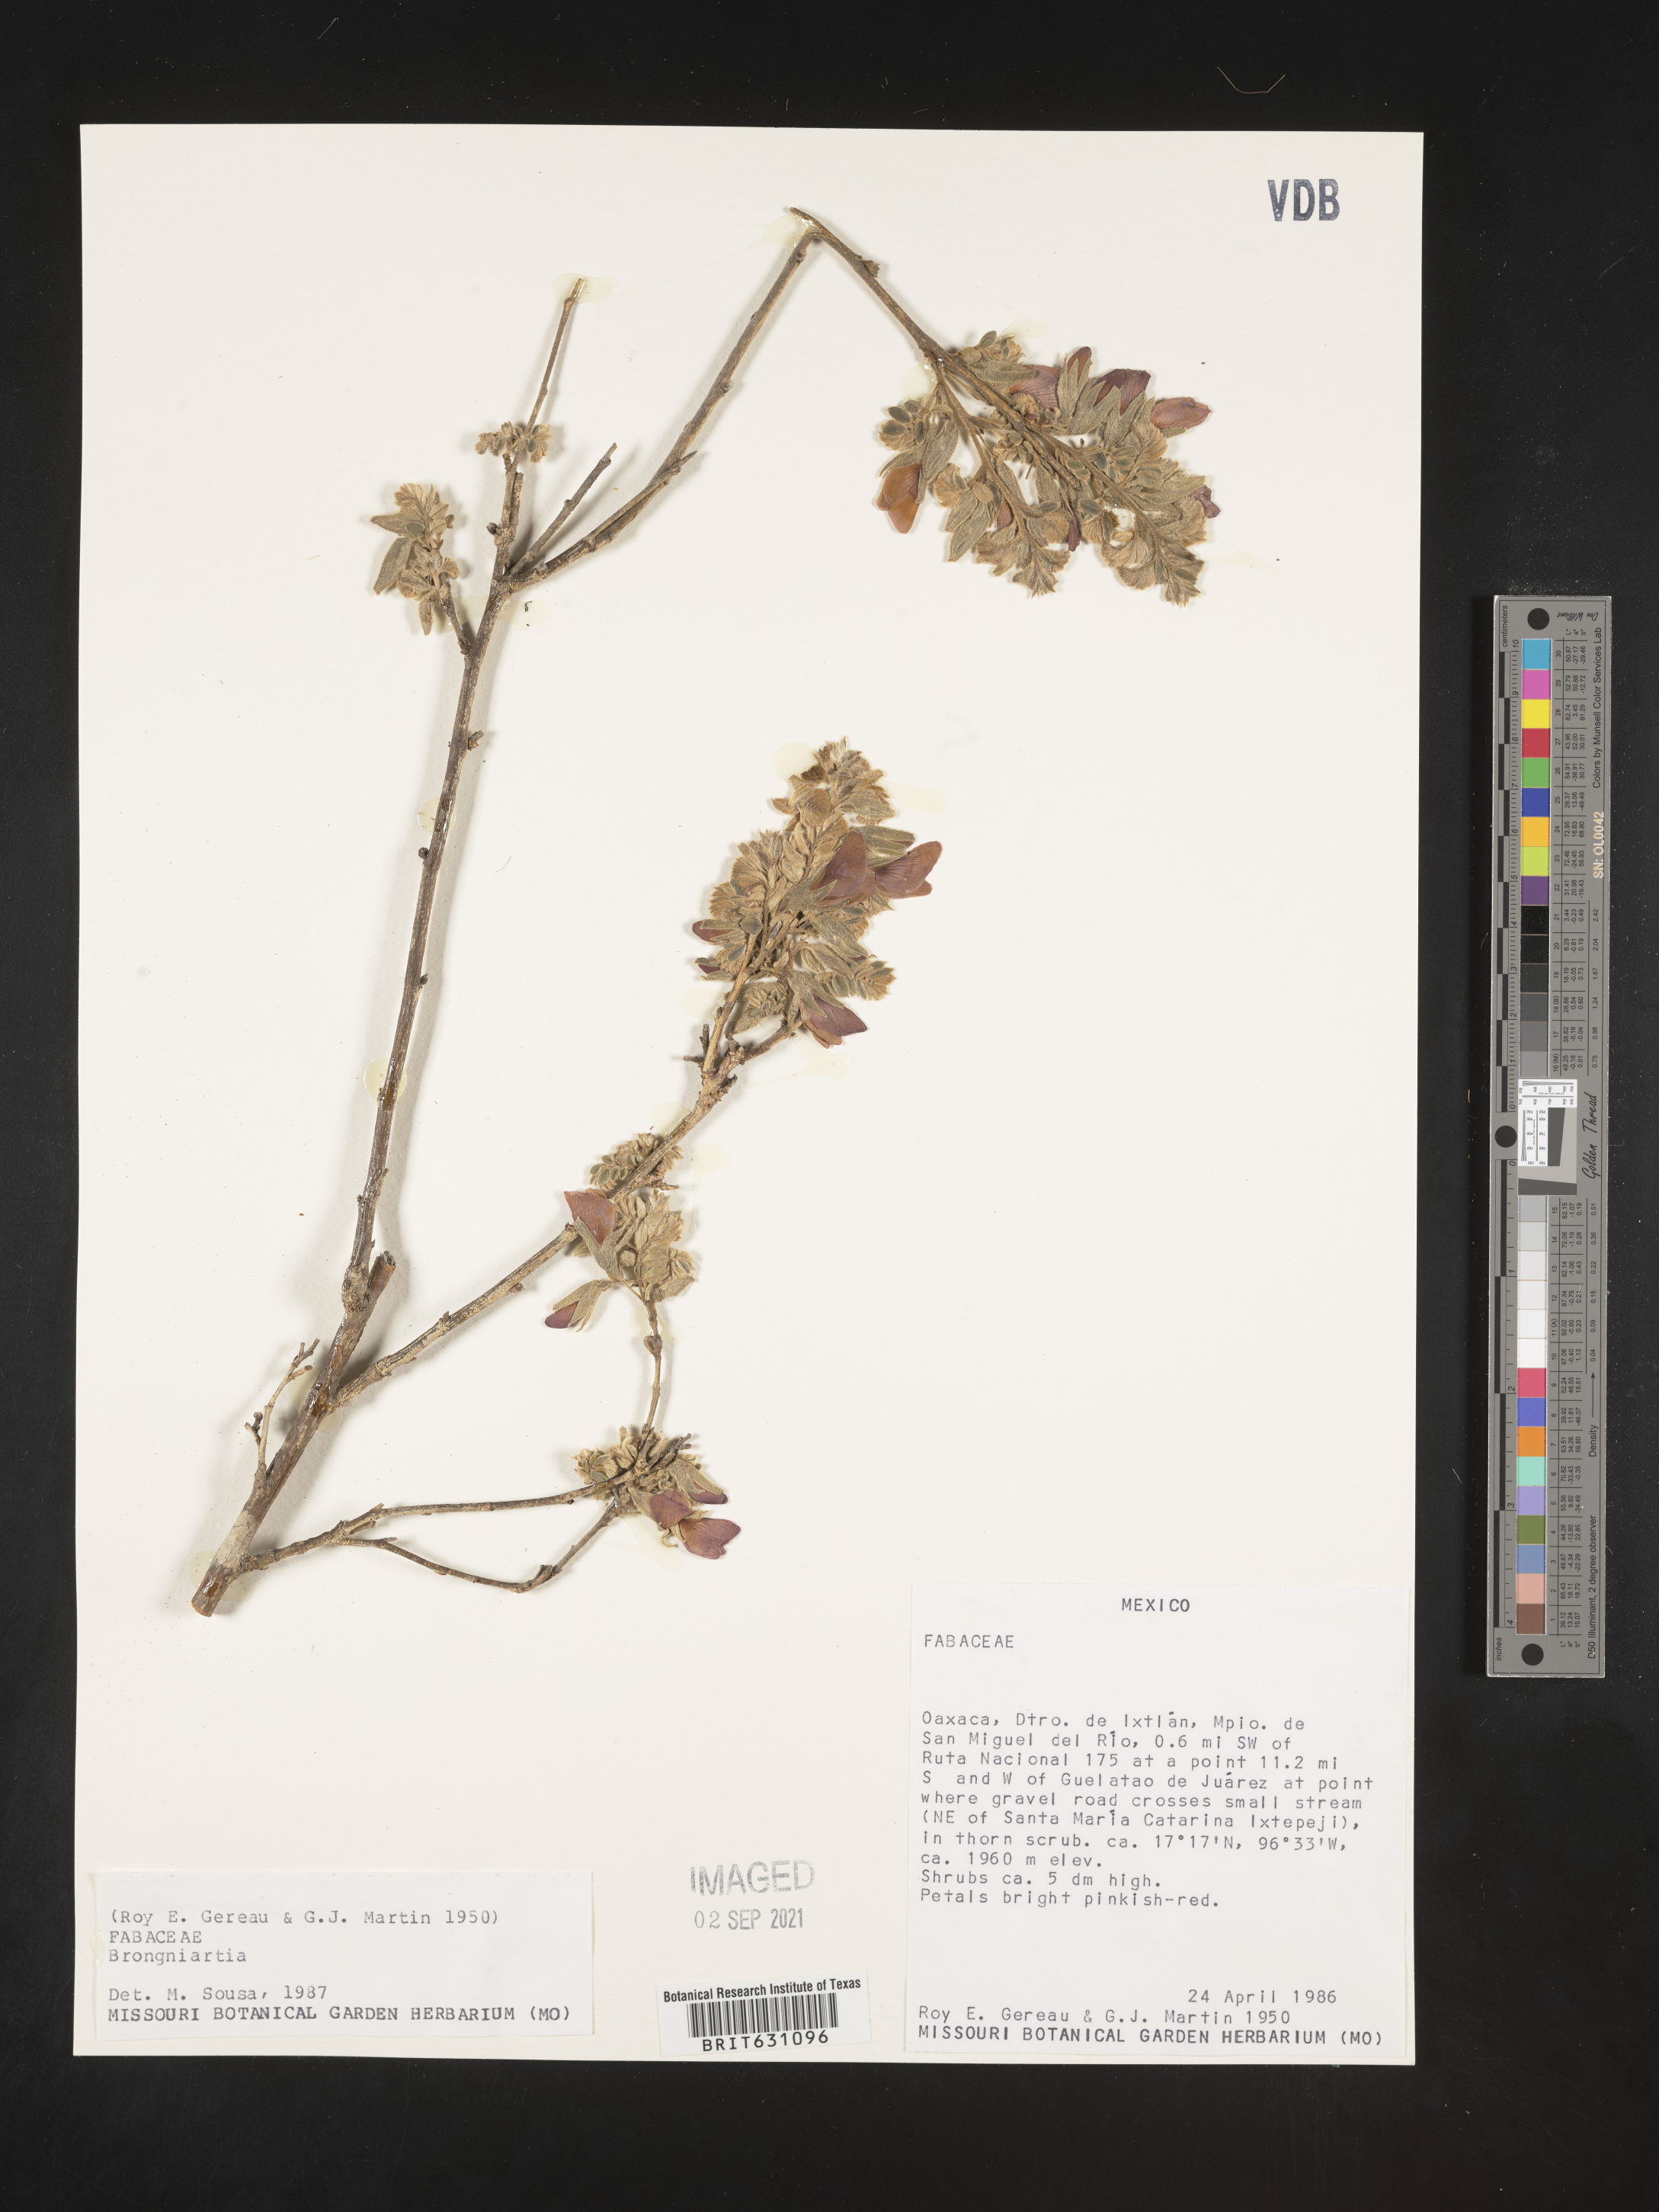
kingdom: Plantae
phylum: Tracheophyta
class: Magnoliopsida
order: Fabales
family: Fabaceae
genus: Brongniartia
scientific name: Brongniartia
